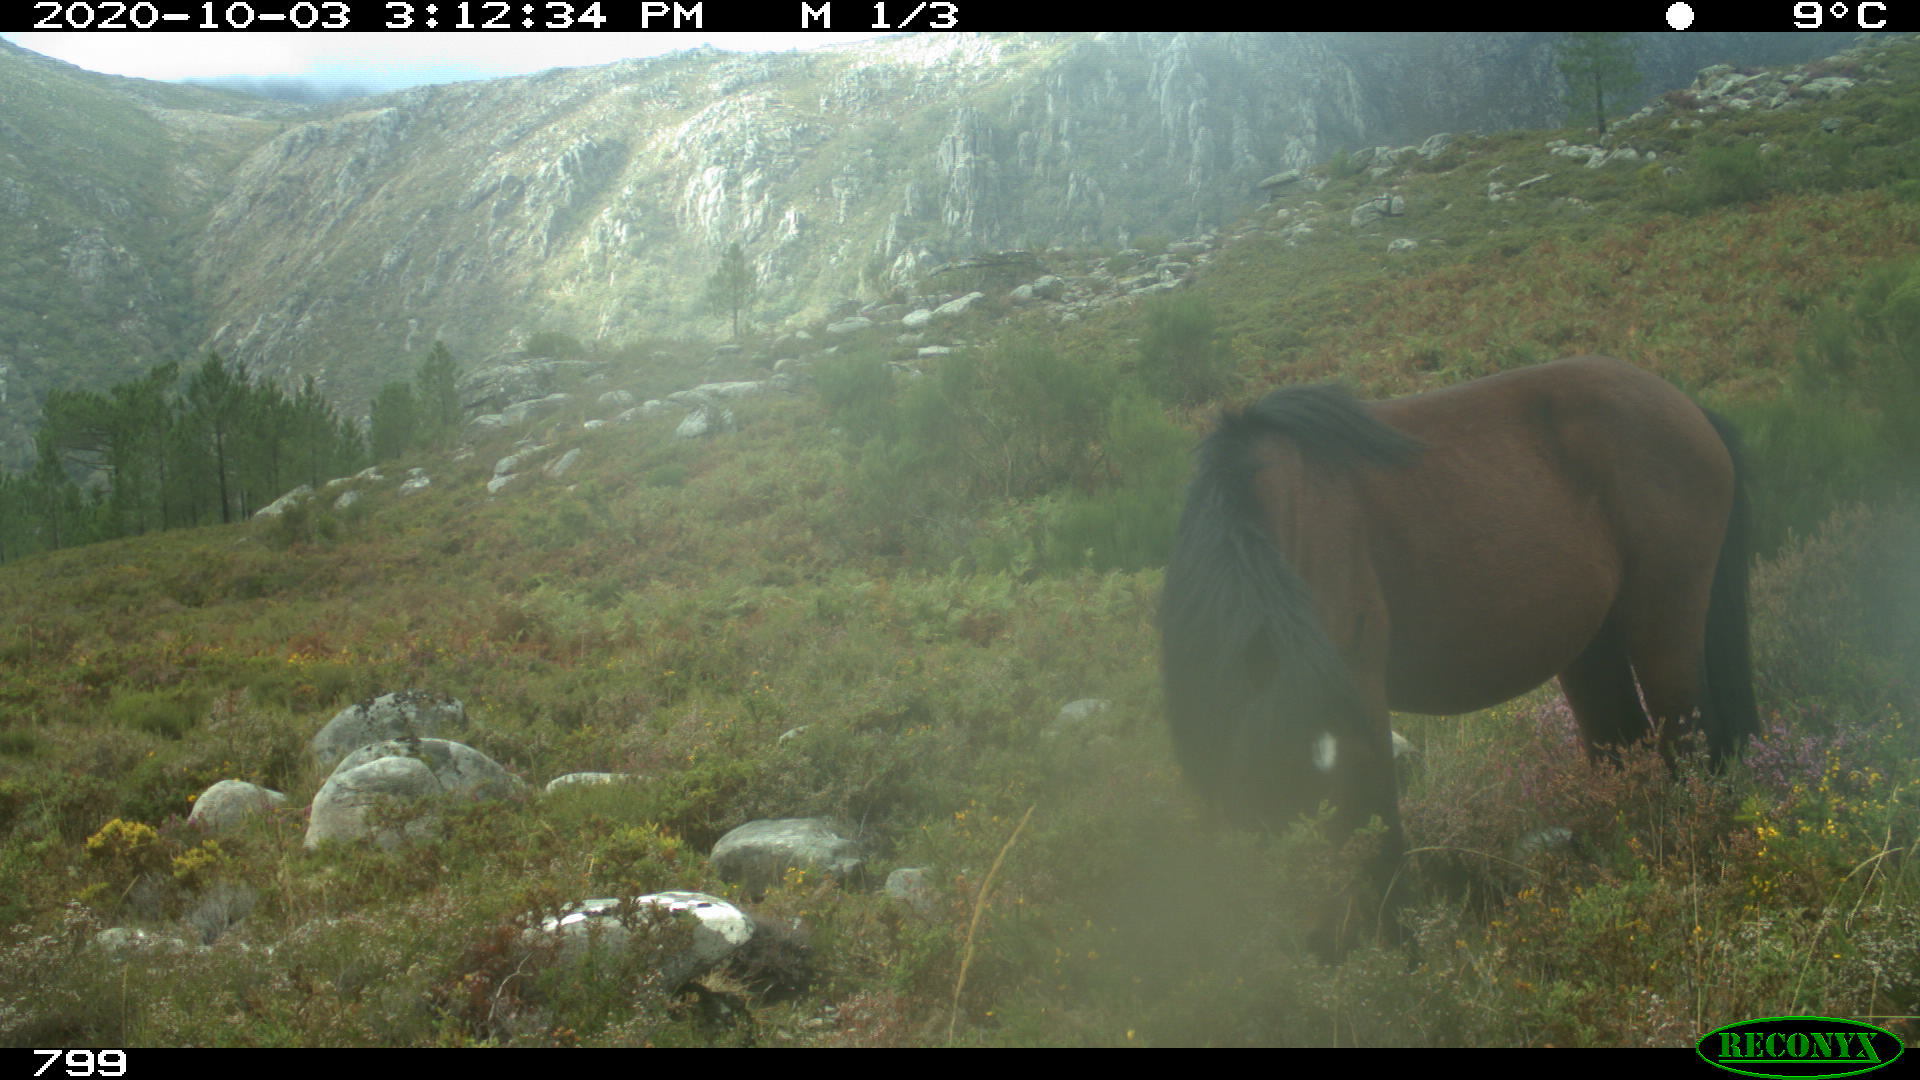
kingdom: Animalia
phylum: Chordata
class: Mammalia
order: Perissodactyla
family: Equidae
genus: Equus
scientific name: Equus caballus
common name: Horse
